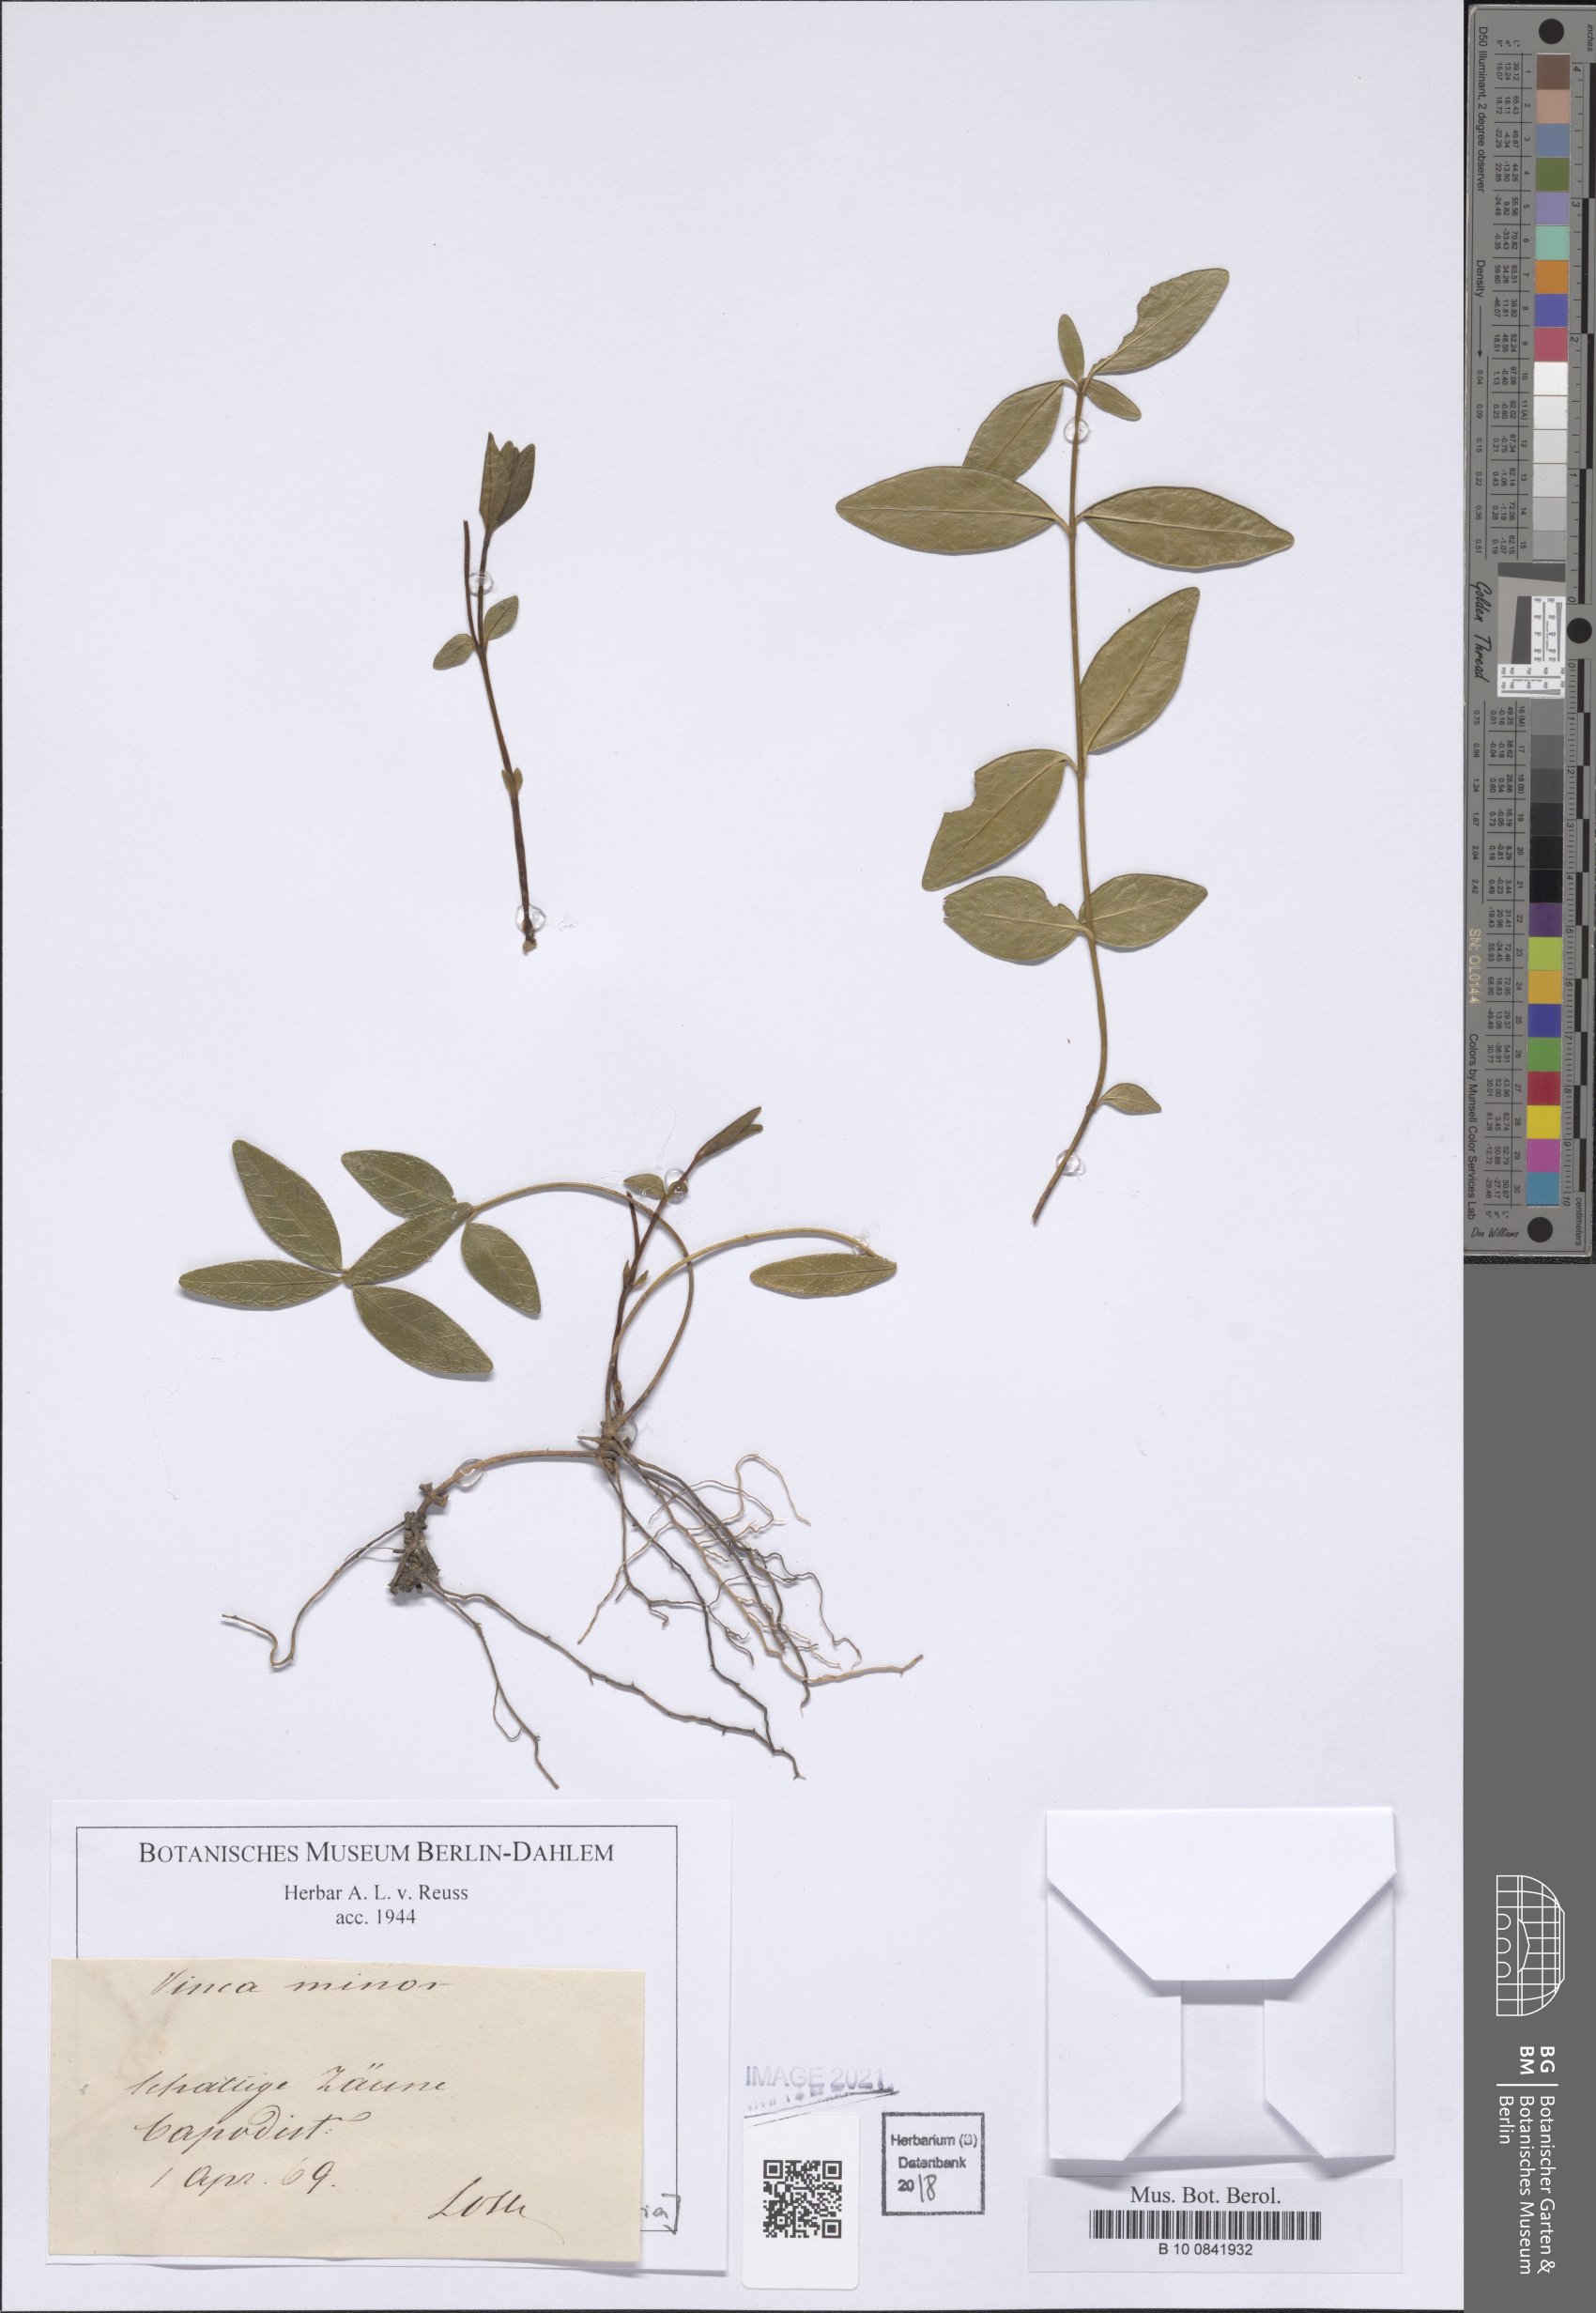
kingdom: Plantae
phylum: Tracheophyta
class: Magnoliopsida
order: Gentianales
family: Apocynaceae
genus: Vinca
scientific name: Vinca minor
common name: Lesser periwinkle
